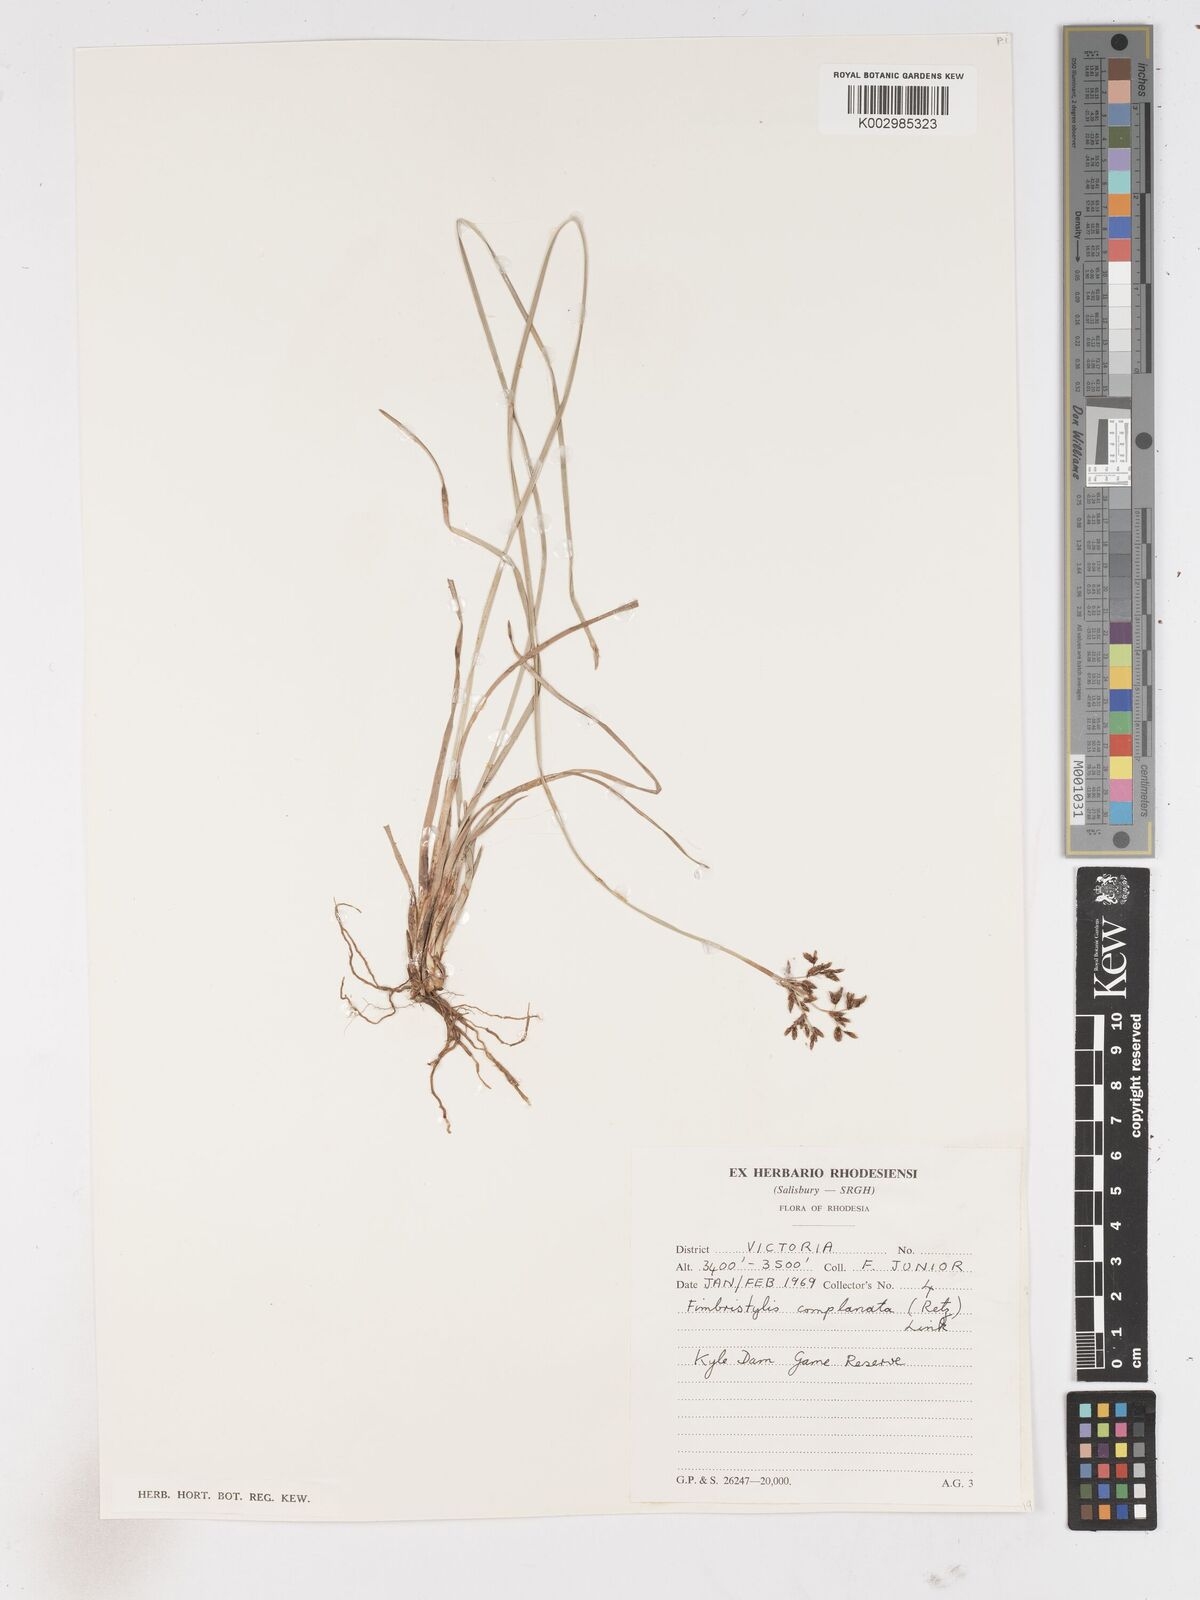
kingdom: Plantae
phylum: Tracheophyta
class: Liliopsida
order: Poales
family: Cyperaceae
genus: Fimbristylis
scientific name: Fimbristylis complanata
